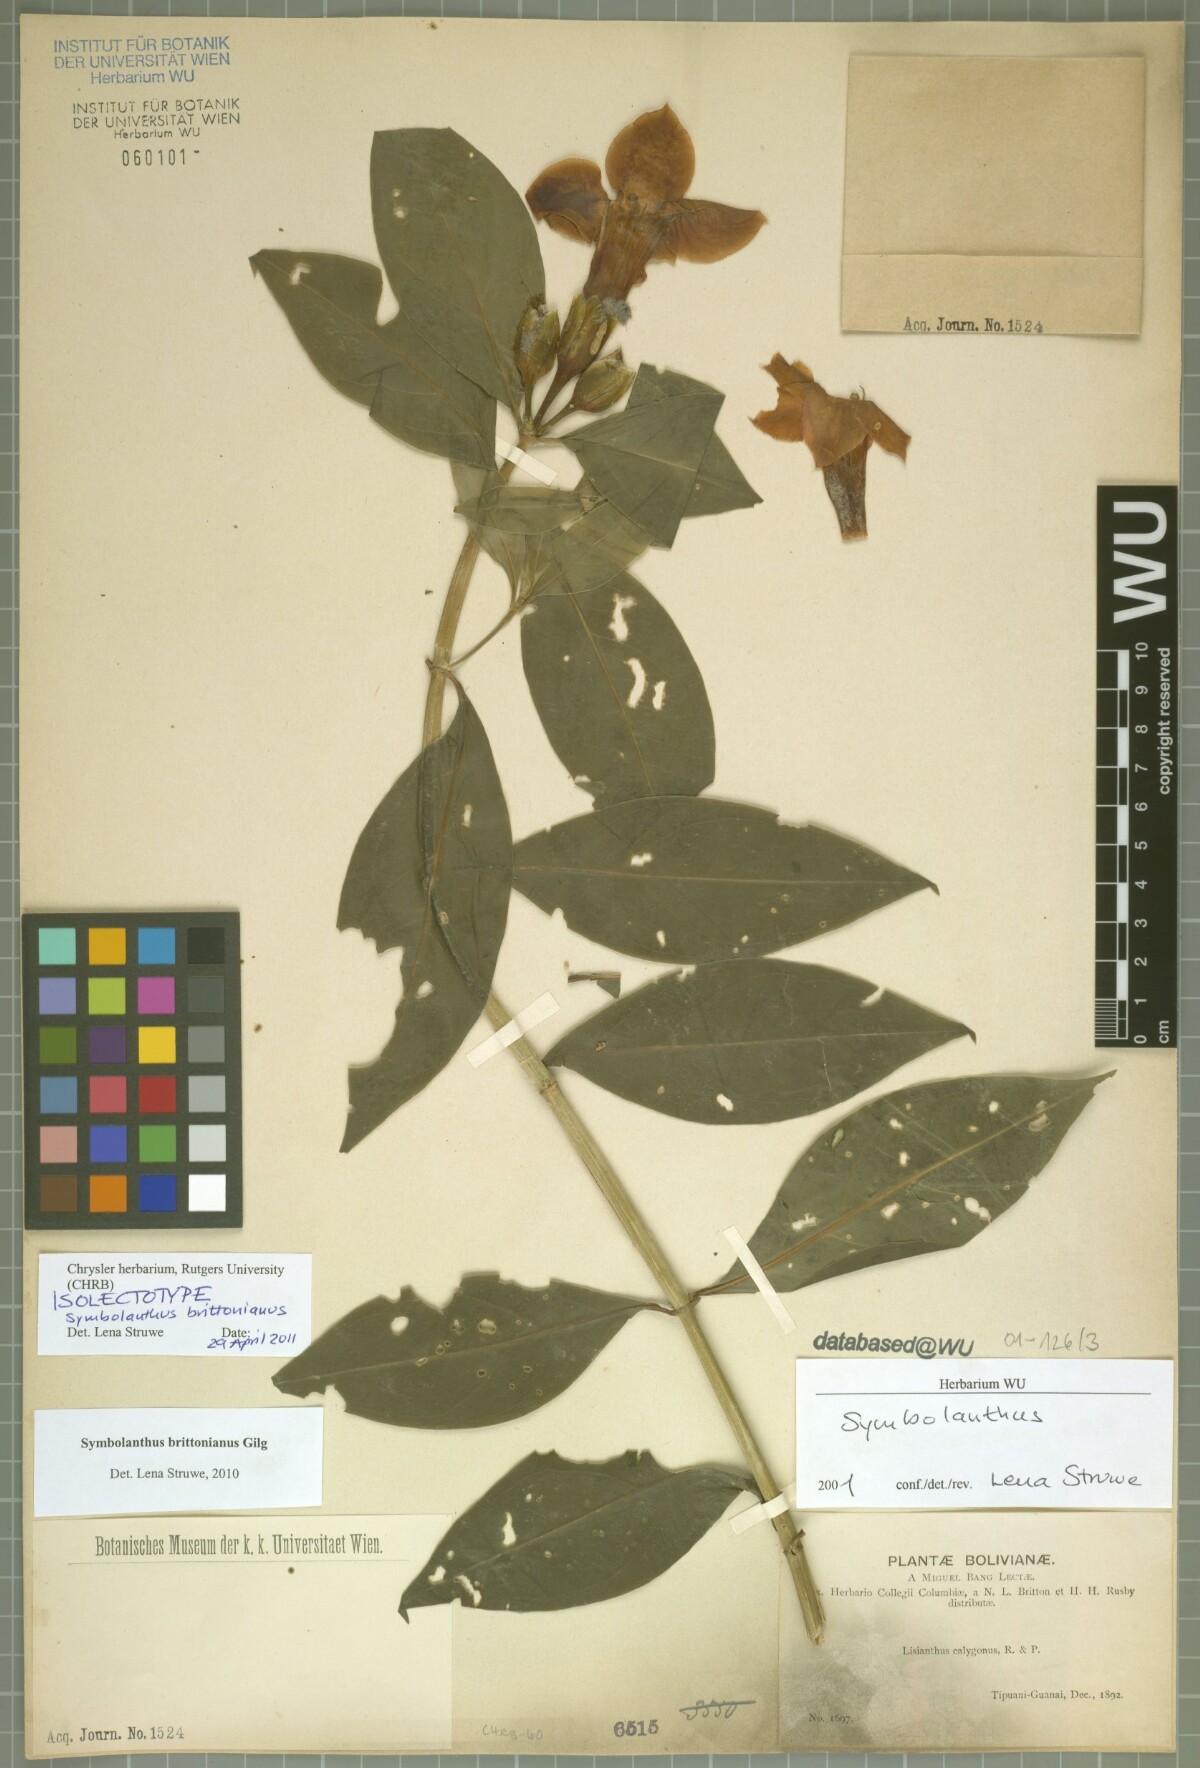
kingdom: Plantae
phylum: Tracheophyta
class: Magnoliopsida
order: Gentianales
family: Gentianaceae
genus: Symbolanthus
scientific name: Symbolanthus brittonianus
